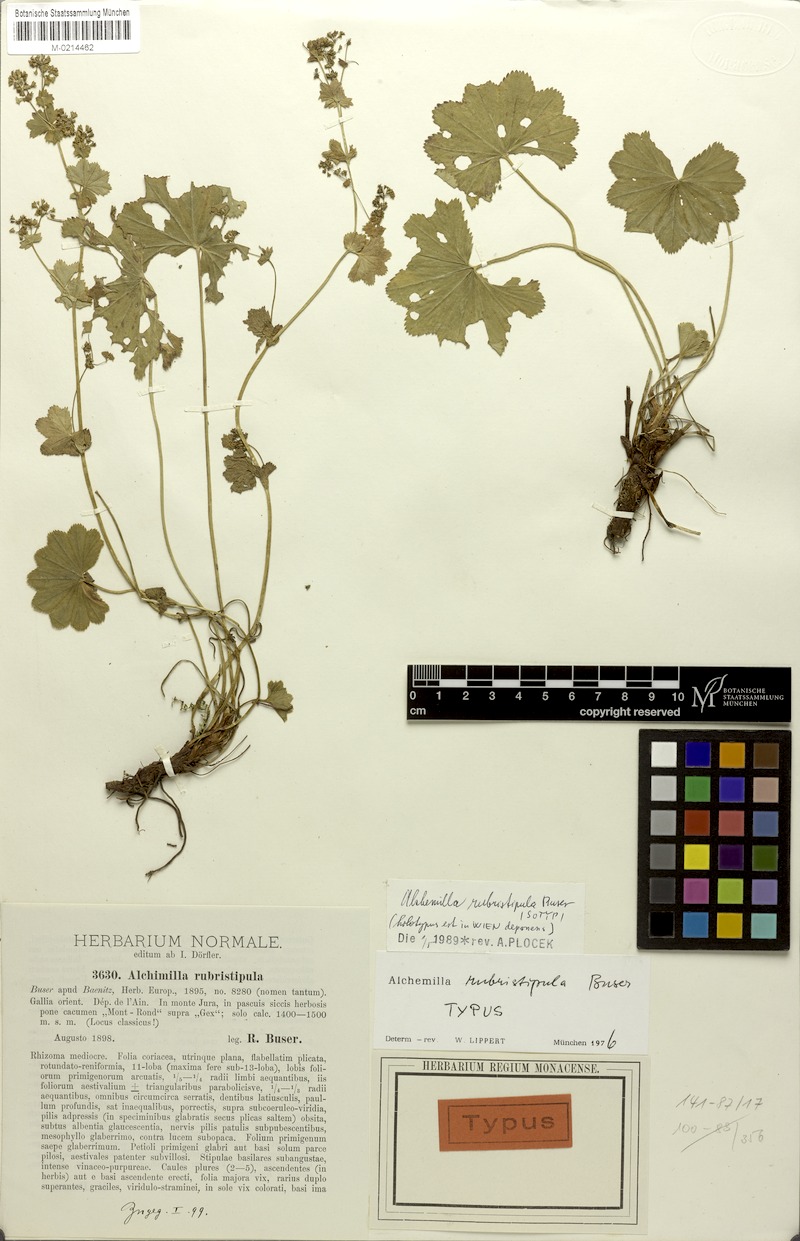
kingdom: Plantae
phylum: Tracheophyta
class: Magnoliopsida
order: Rosales
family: Rosaceae
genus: Alchemilla
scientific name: Alchemilla rubristipula
